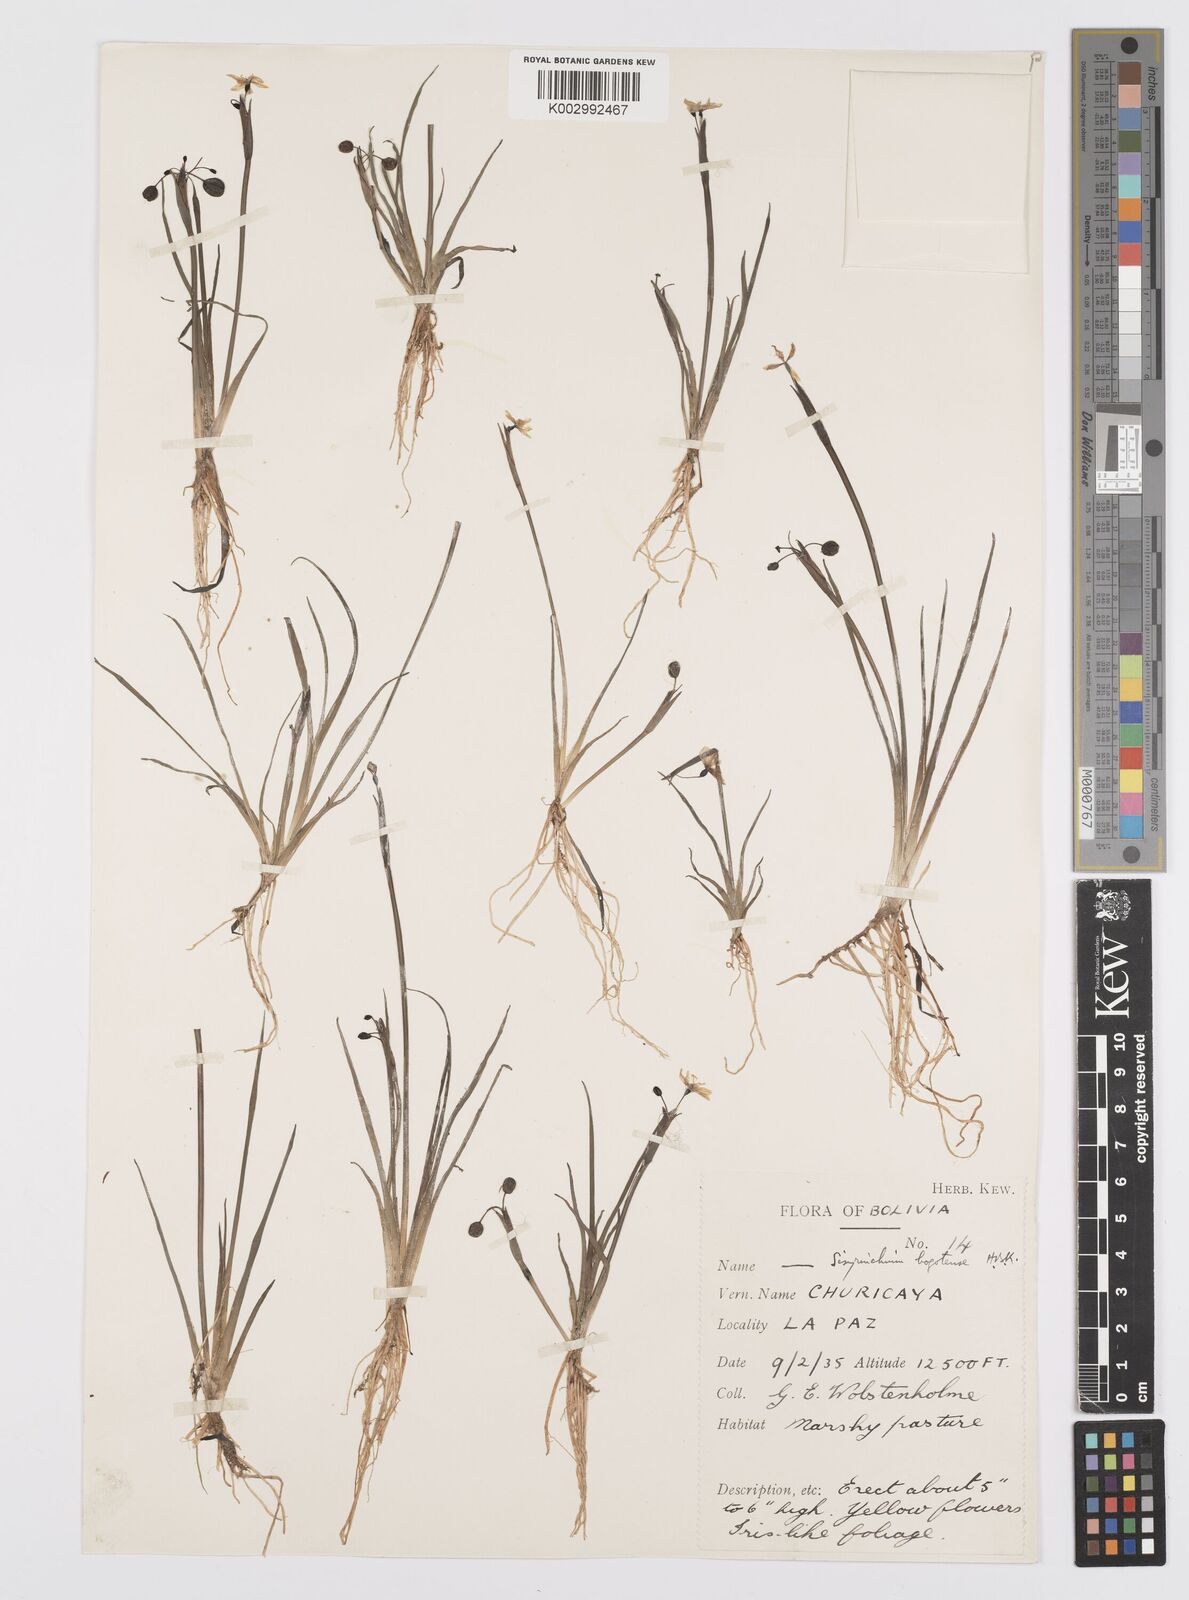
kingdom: Plantae
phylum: Tracheophyta
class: Liliopsida
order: Asparagales
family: Iridaceae
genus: Sisyrinchium
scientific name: Sisyrinchium tinctorium
